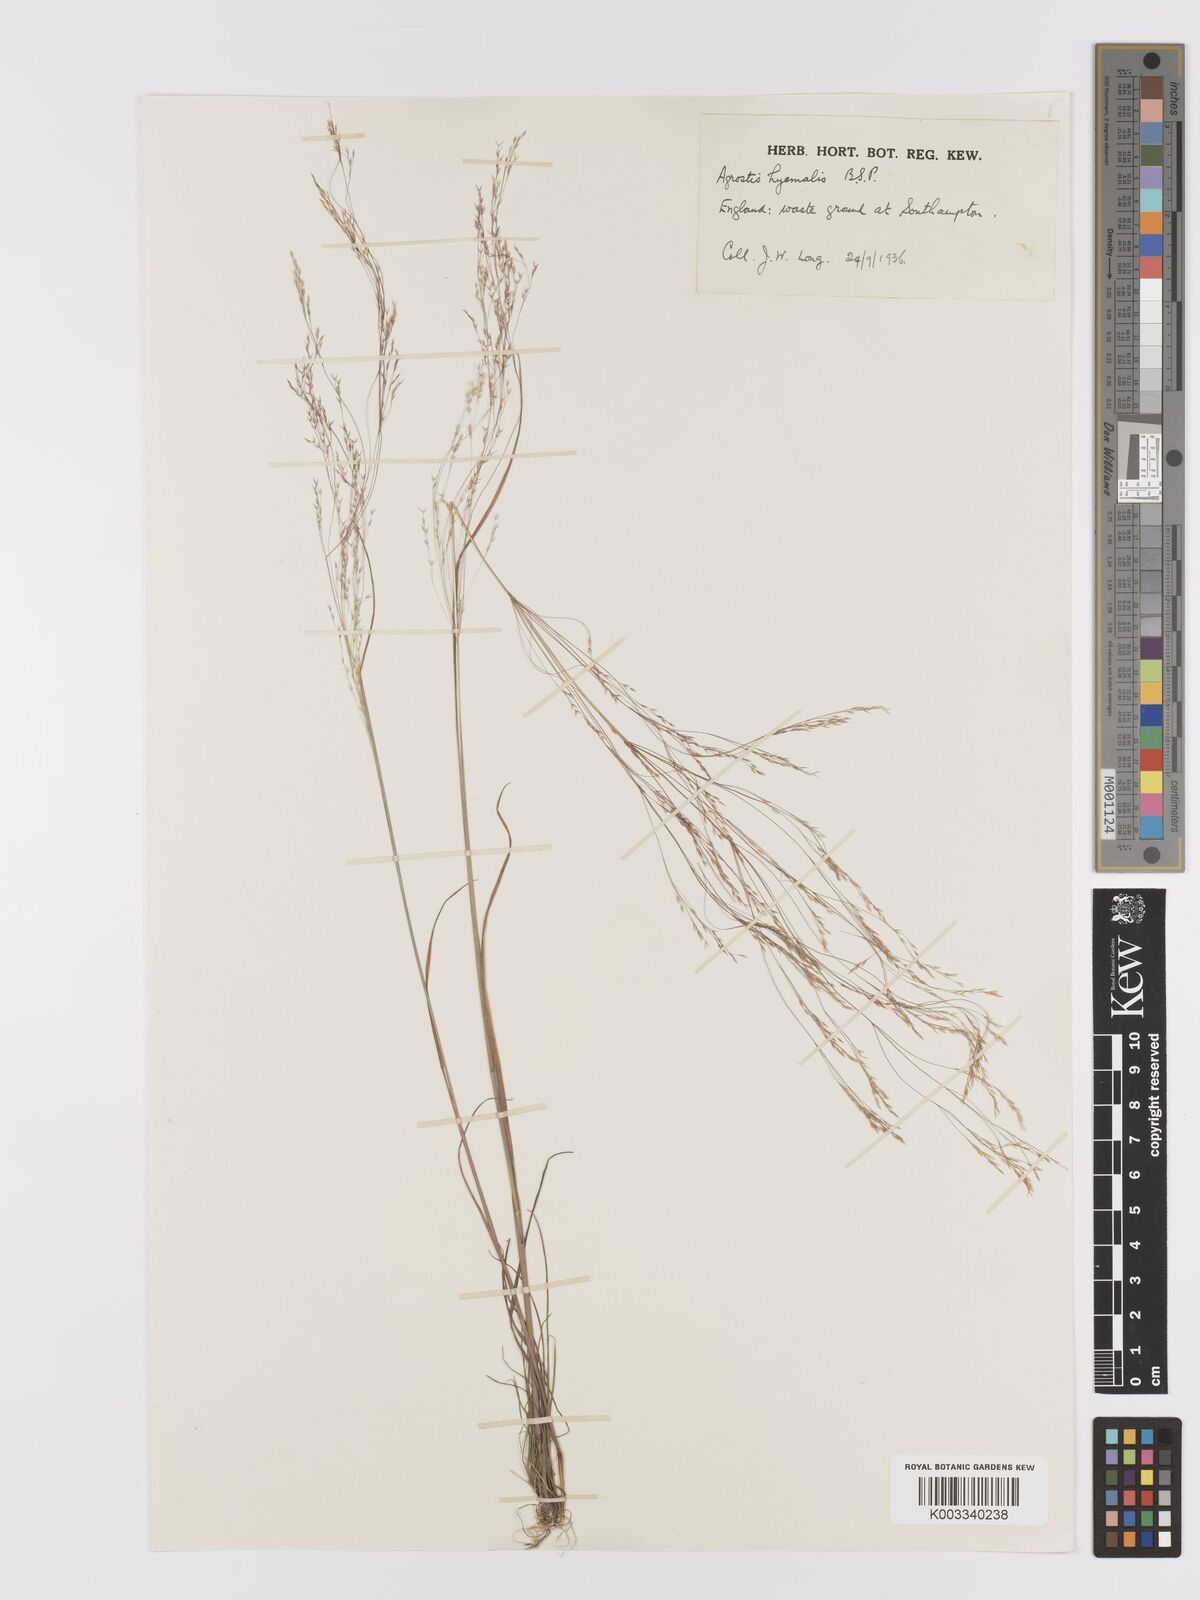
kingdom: Plantae
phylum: Tracheophyta
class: Liliopsida
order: Poales
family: Poaceae
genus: Agrostis
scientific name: Agrostis scabra
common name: Rough bent
